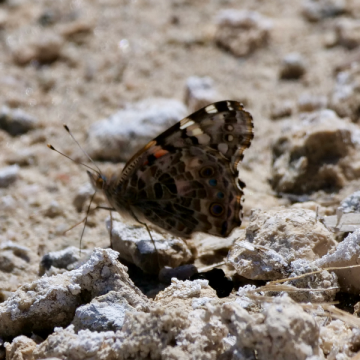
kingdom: Animalia
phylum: Arthropoda
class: Insecta
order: Lepidoptera
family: Nymphalidae
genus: Vanessa
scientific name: Vanessa cardui
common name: Painted Lady
